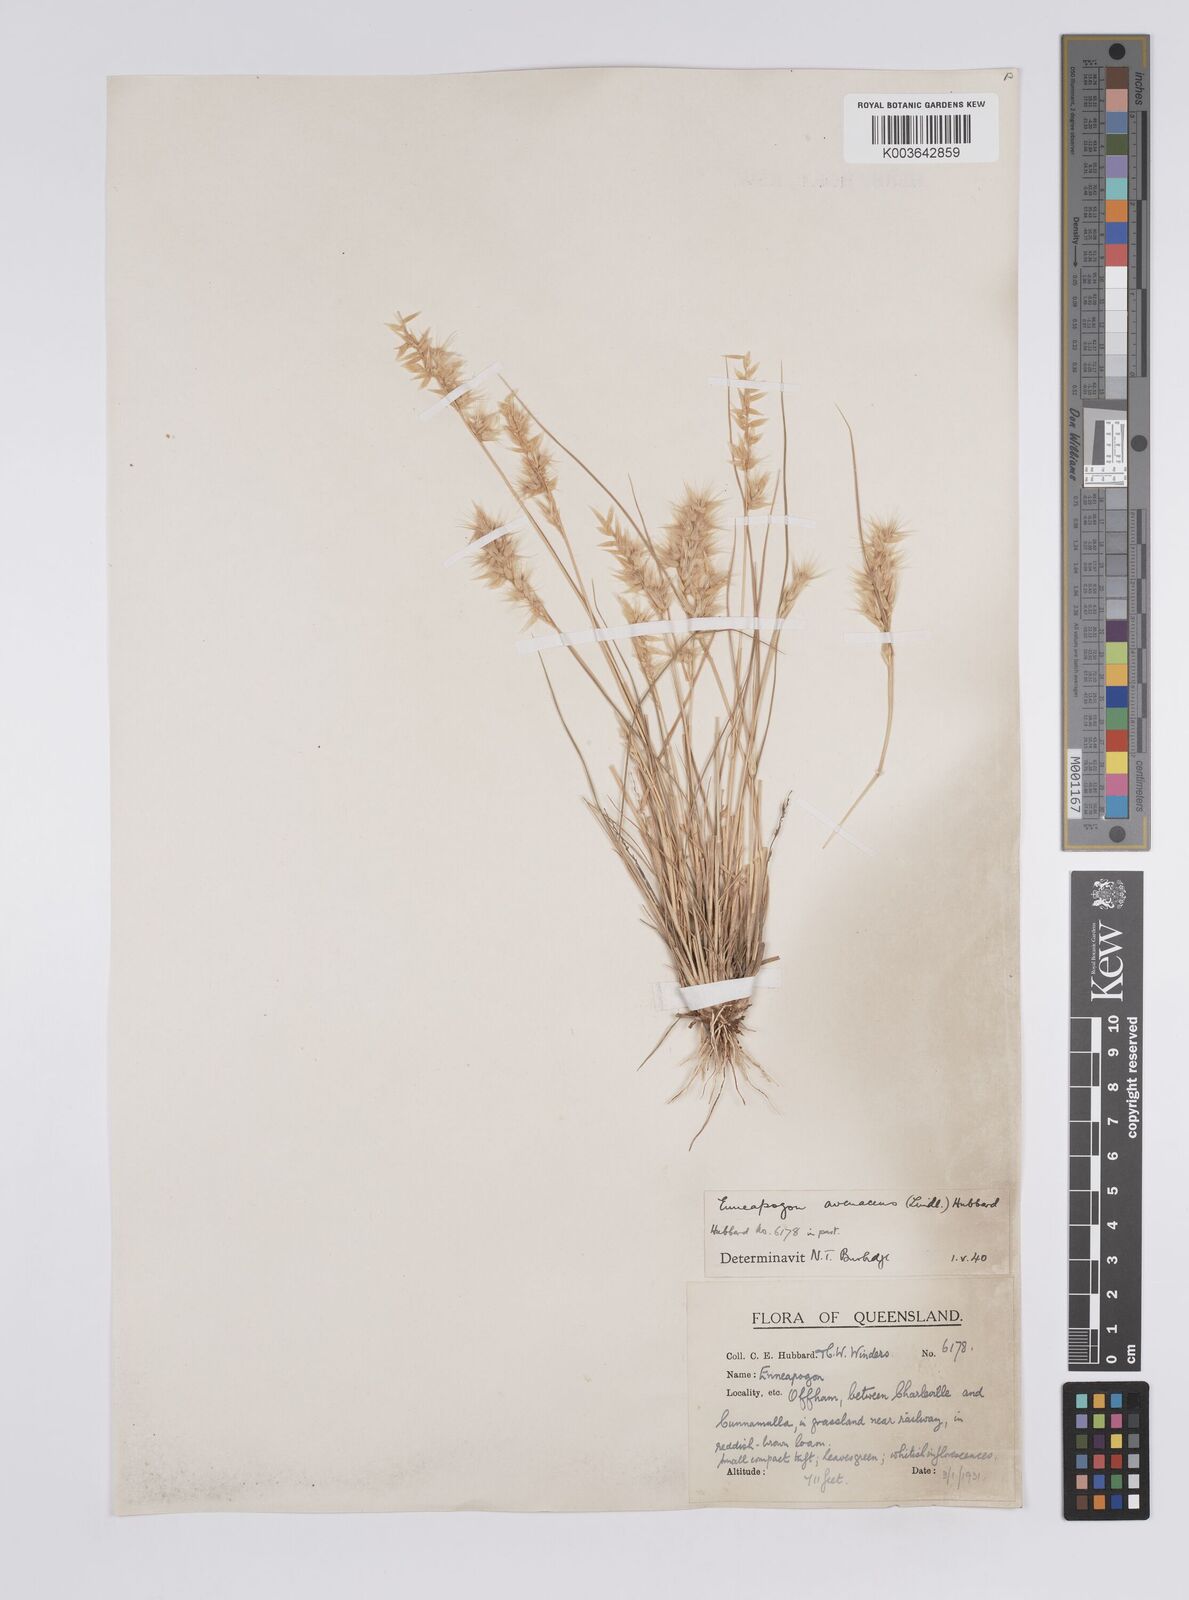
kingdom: Plantae
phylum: Tracheophyta
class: Liliopsida
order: Poales
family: Poaceae
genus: Enneapogon
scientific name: Enneapogon avenaceus
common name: Hairy oat grass
